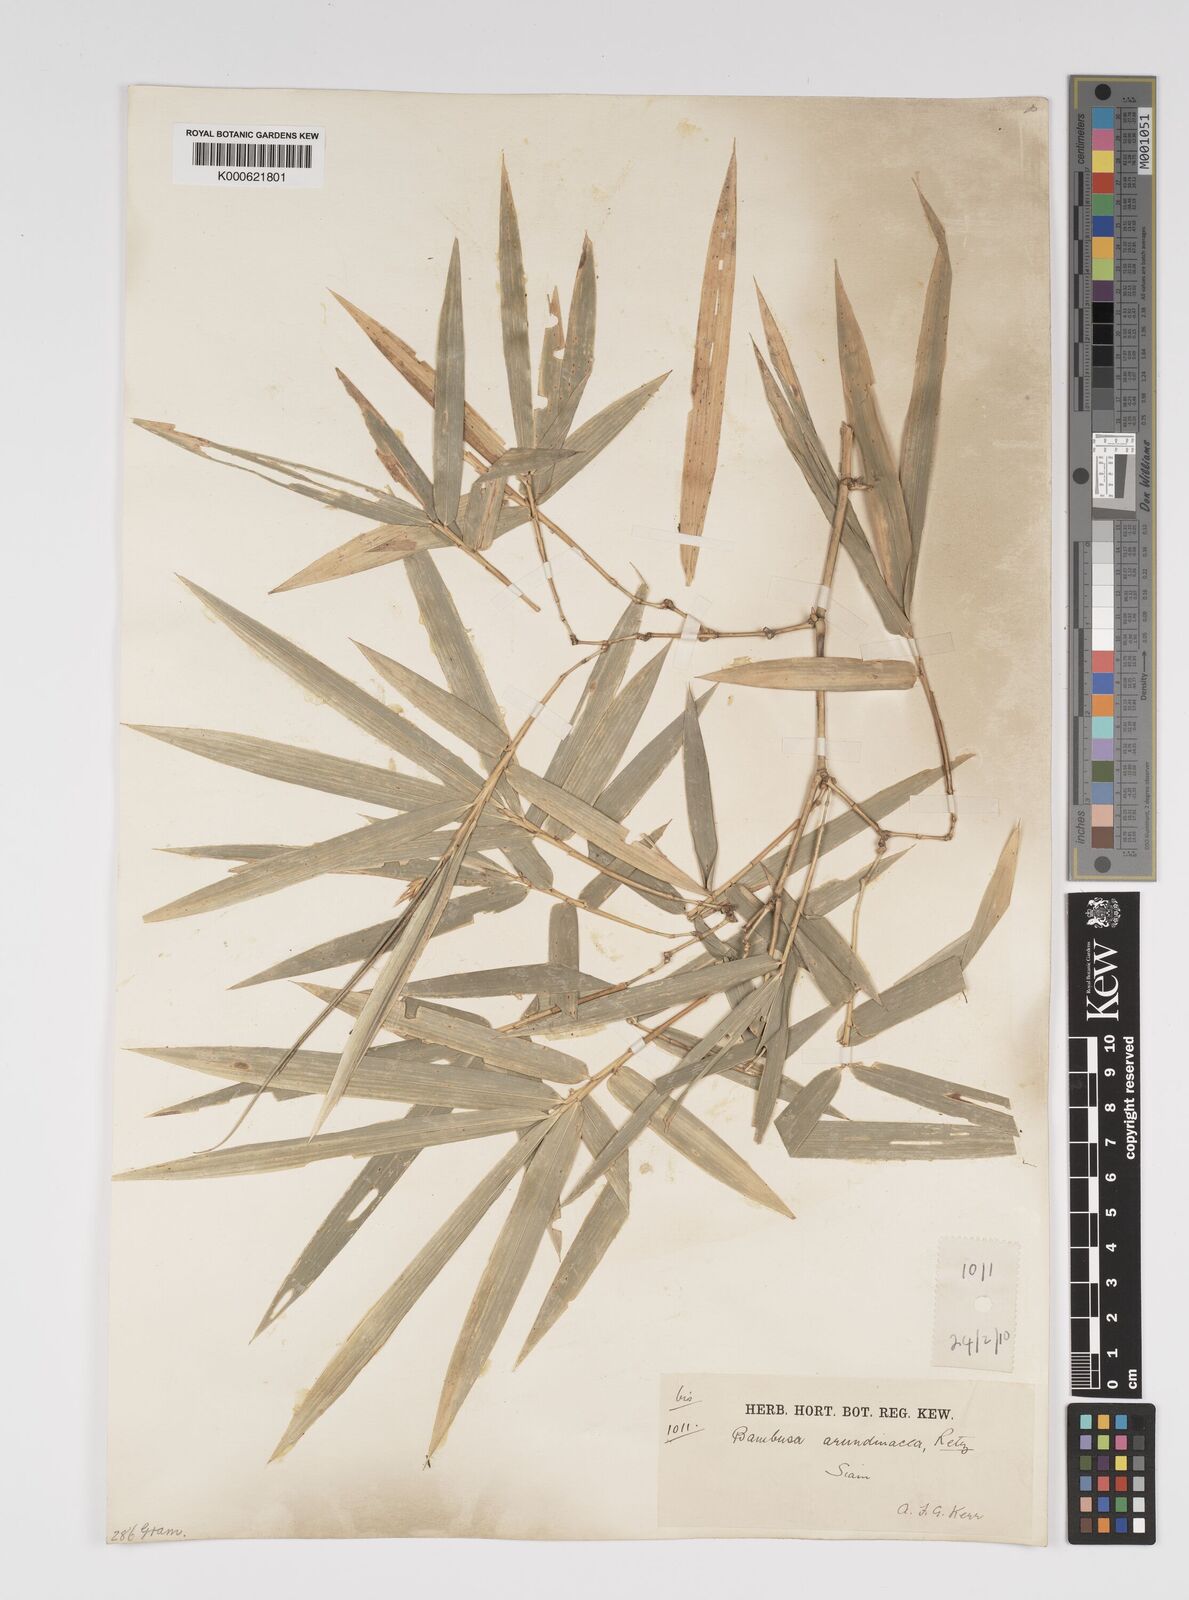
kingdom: Plantae
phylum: Tracheophyta
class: Liliopsida
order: Poales
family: Poaceae
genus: Bambusa
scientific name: Bambusa bambos
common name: Indian thorny bamboo
